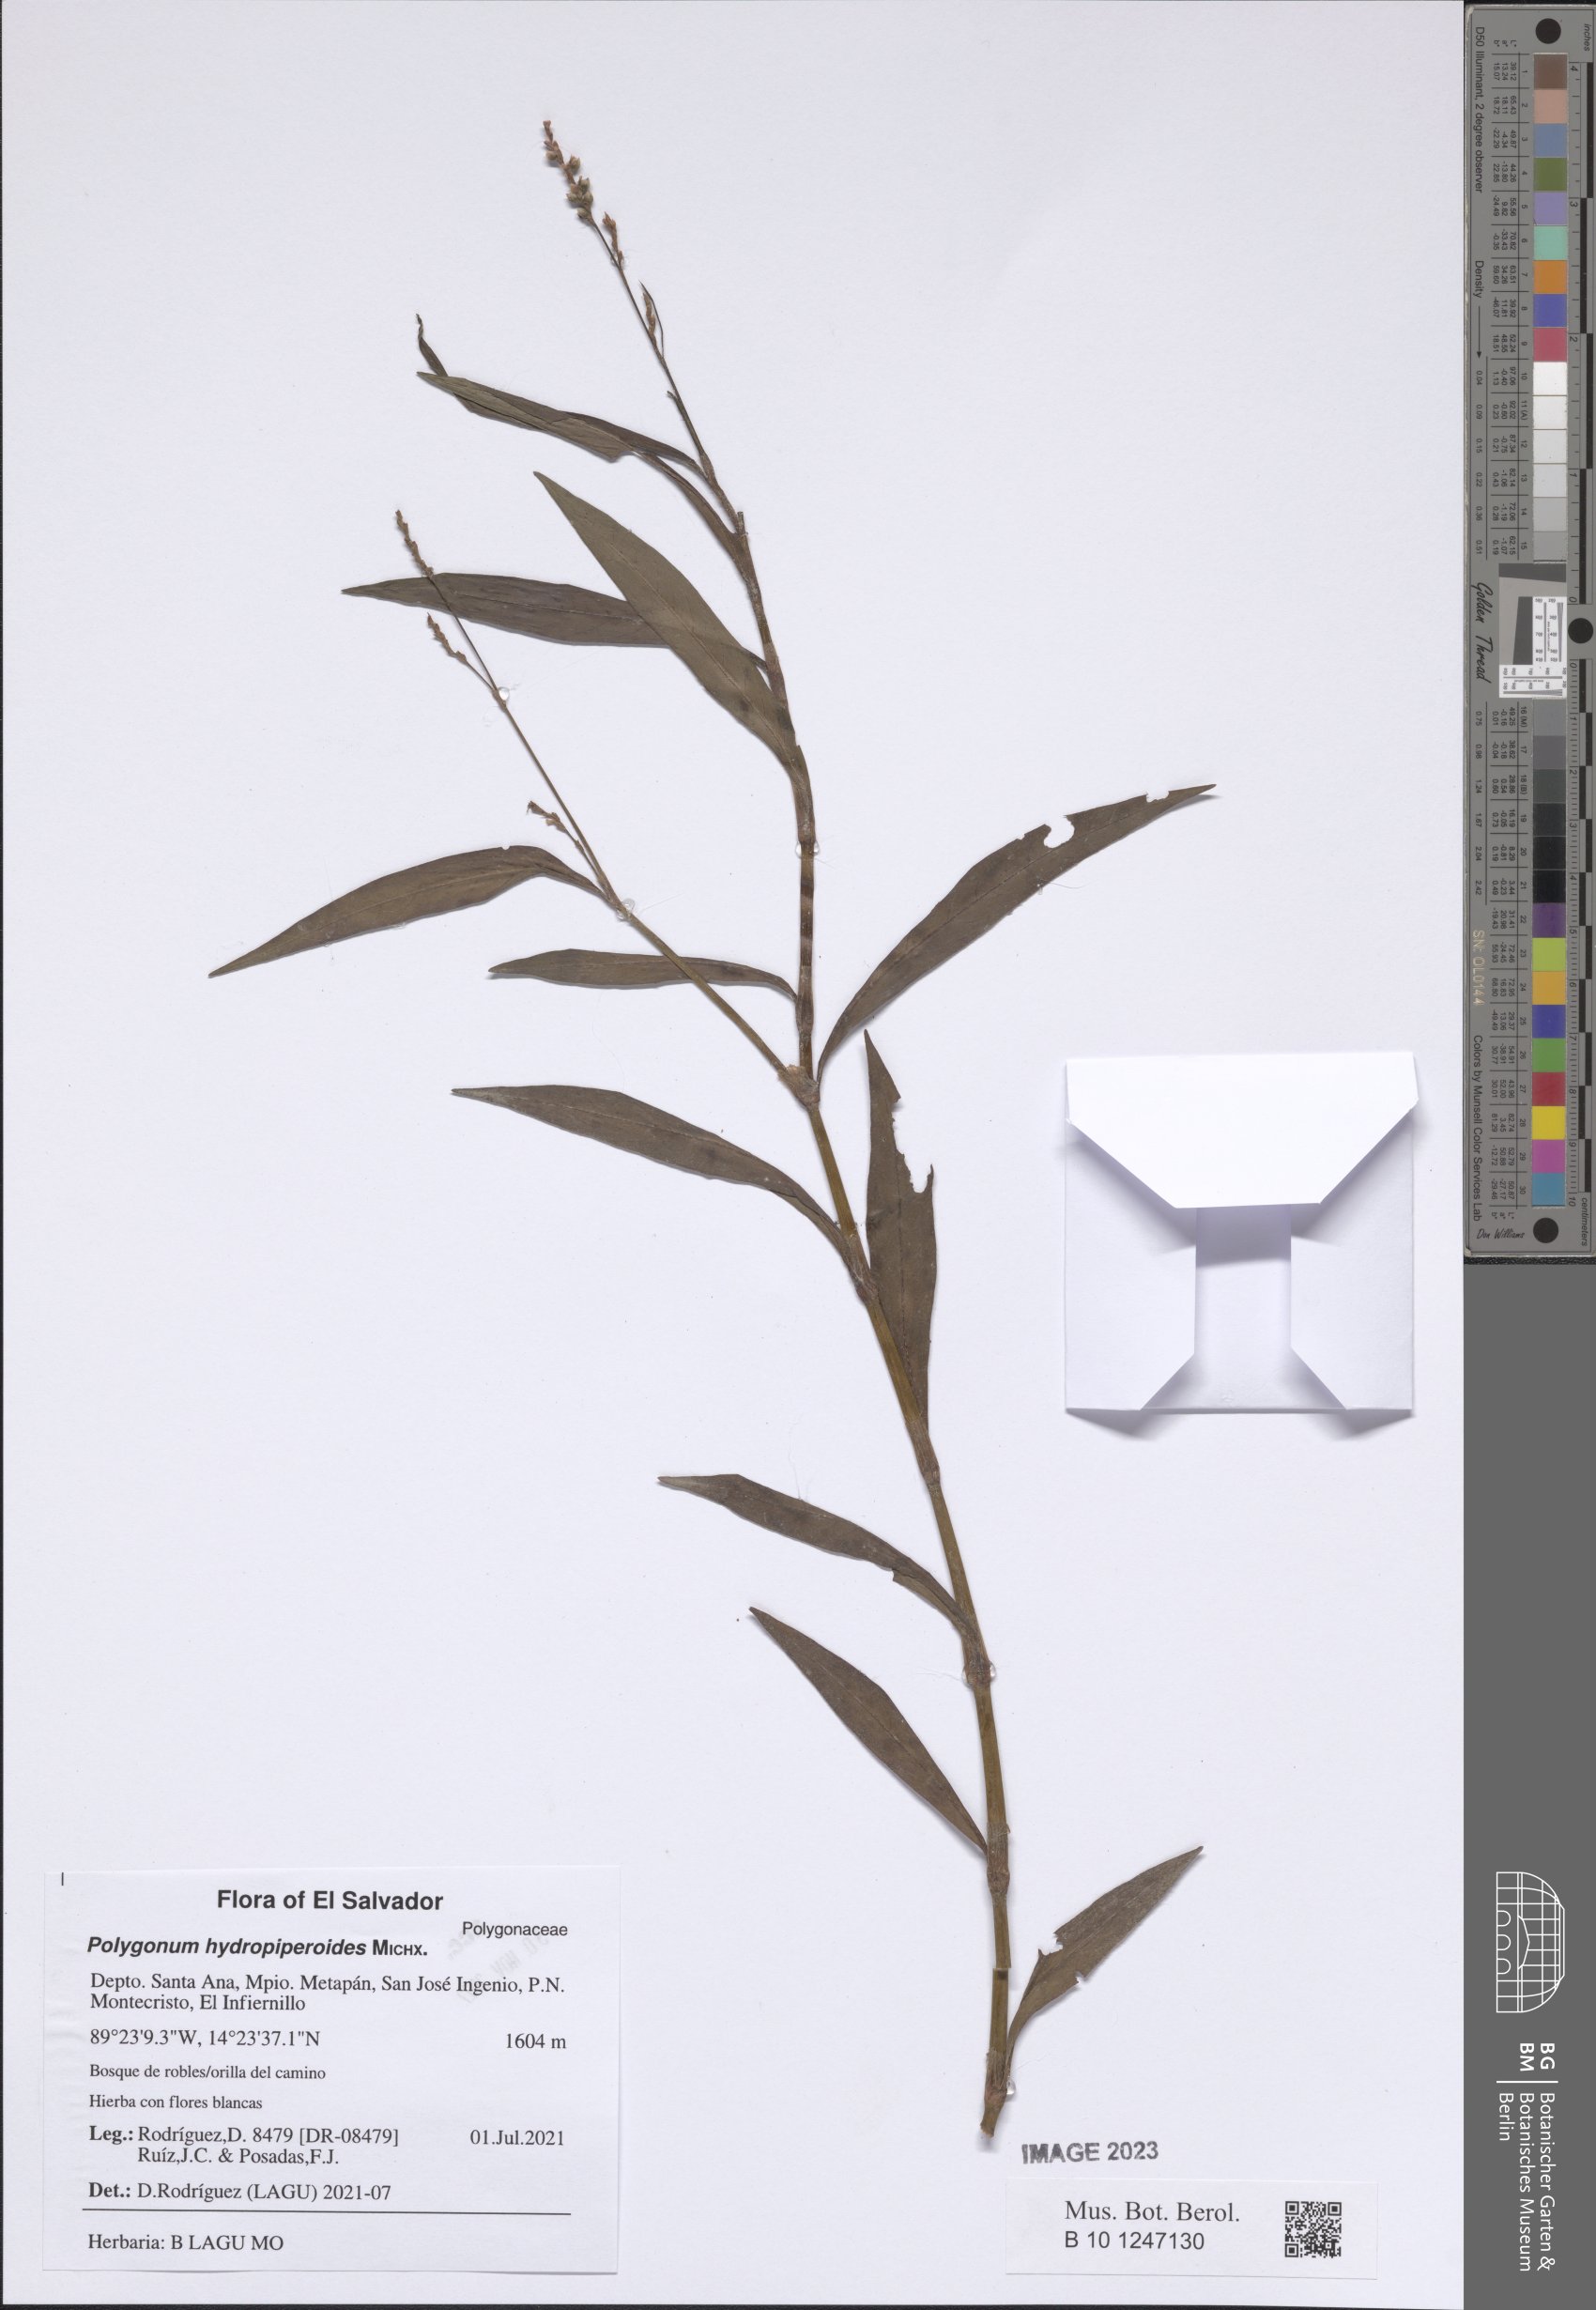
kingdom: Plantae
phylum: Tracheophyta
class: Magnoliopsida
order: Caryophyllales
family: Polygonaceae
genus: Persicaria
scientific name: Persicaria hydropiperoides
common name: Swamp smartweed
